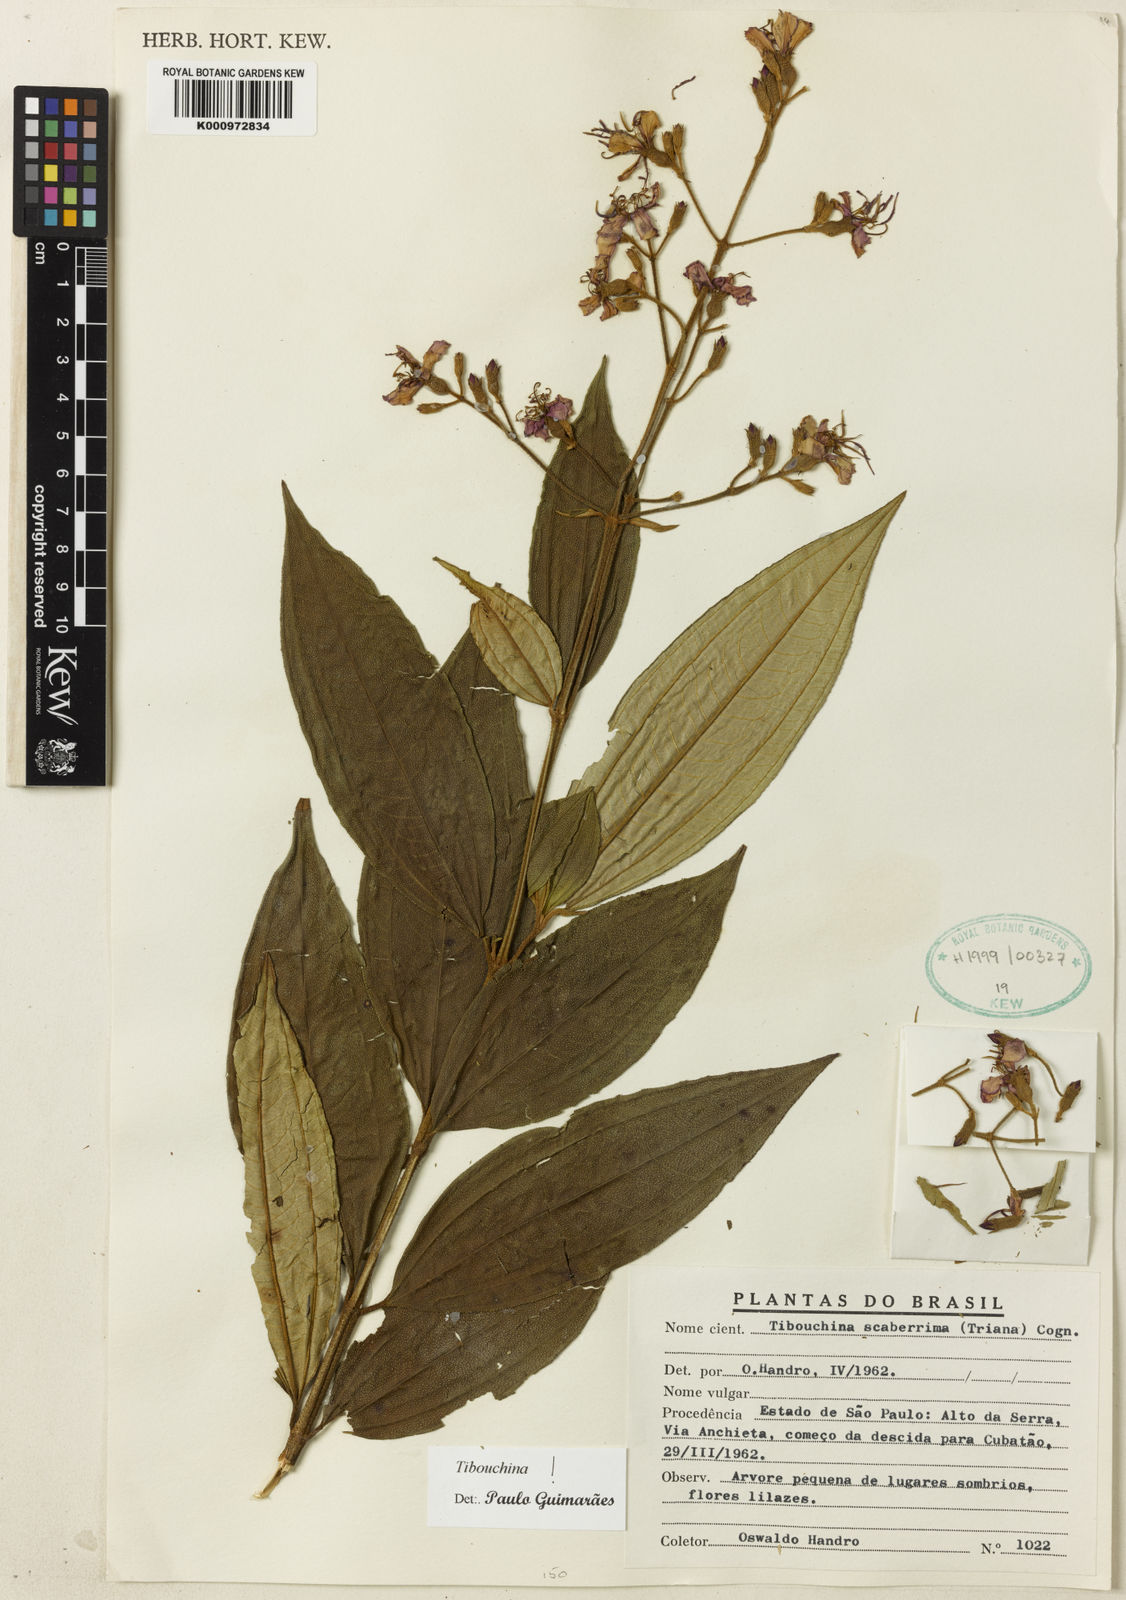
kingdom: Plantae
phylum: Tracheophyta
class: Magnoliopsida
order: Myrtales
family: Melastomataceae
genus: Pleroma
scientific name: Pleroma scaberrimum
